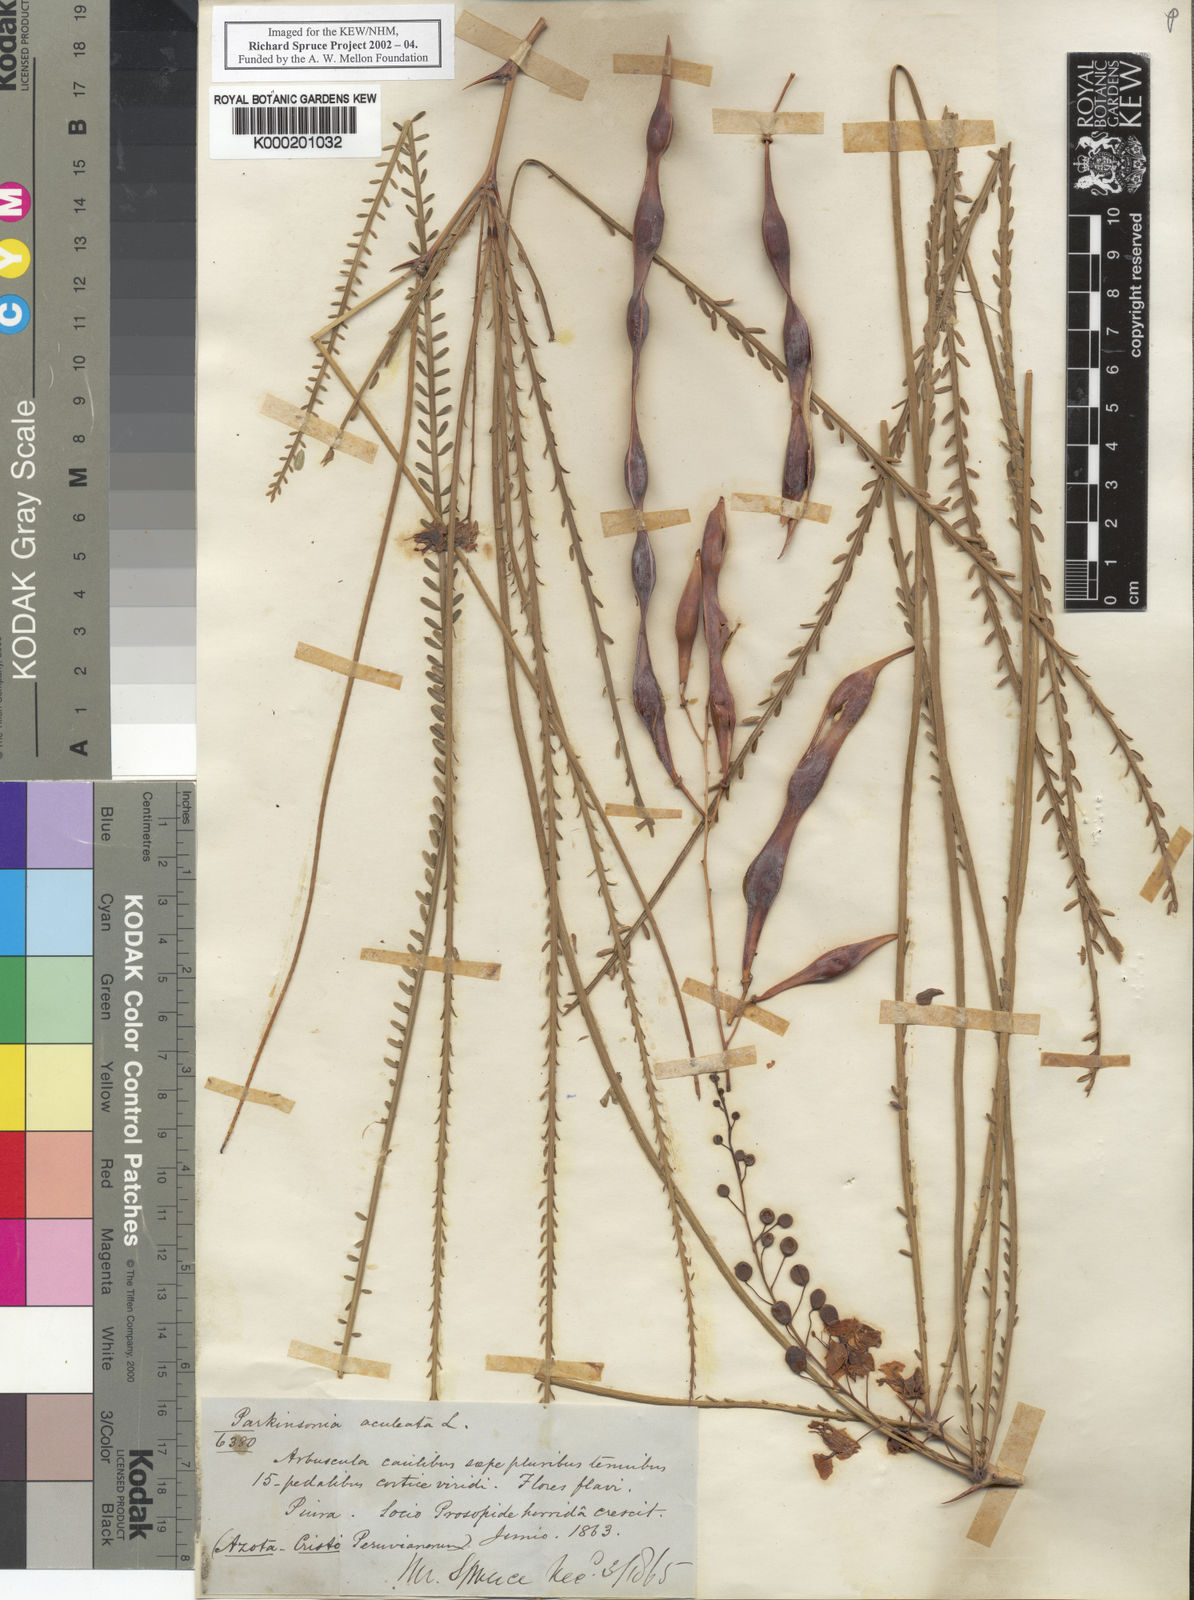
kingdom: Plantae
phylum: Tracheophyta
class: Magnoliopsida
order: Fabales
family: Fabaceae
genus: Parkinsonia
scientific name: Parkinsonia aculeata
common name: Jerusalem thorn
